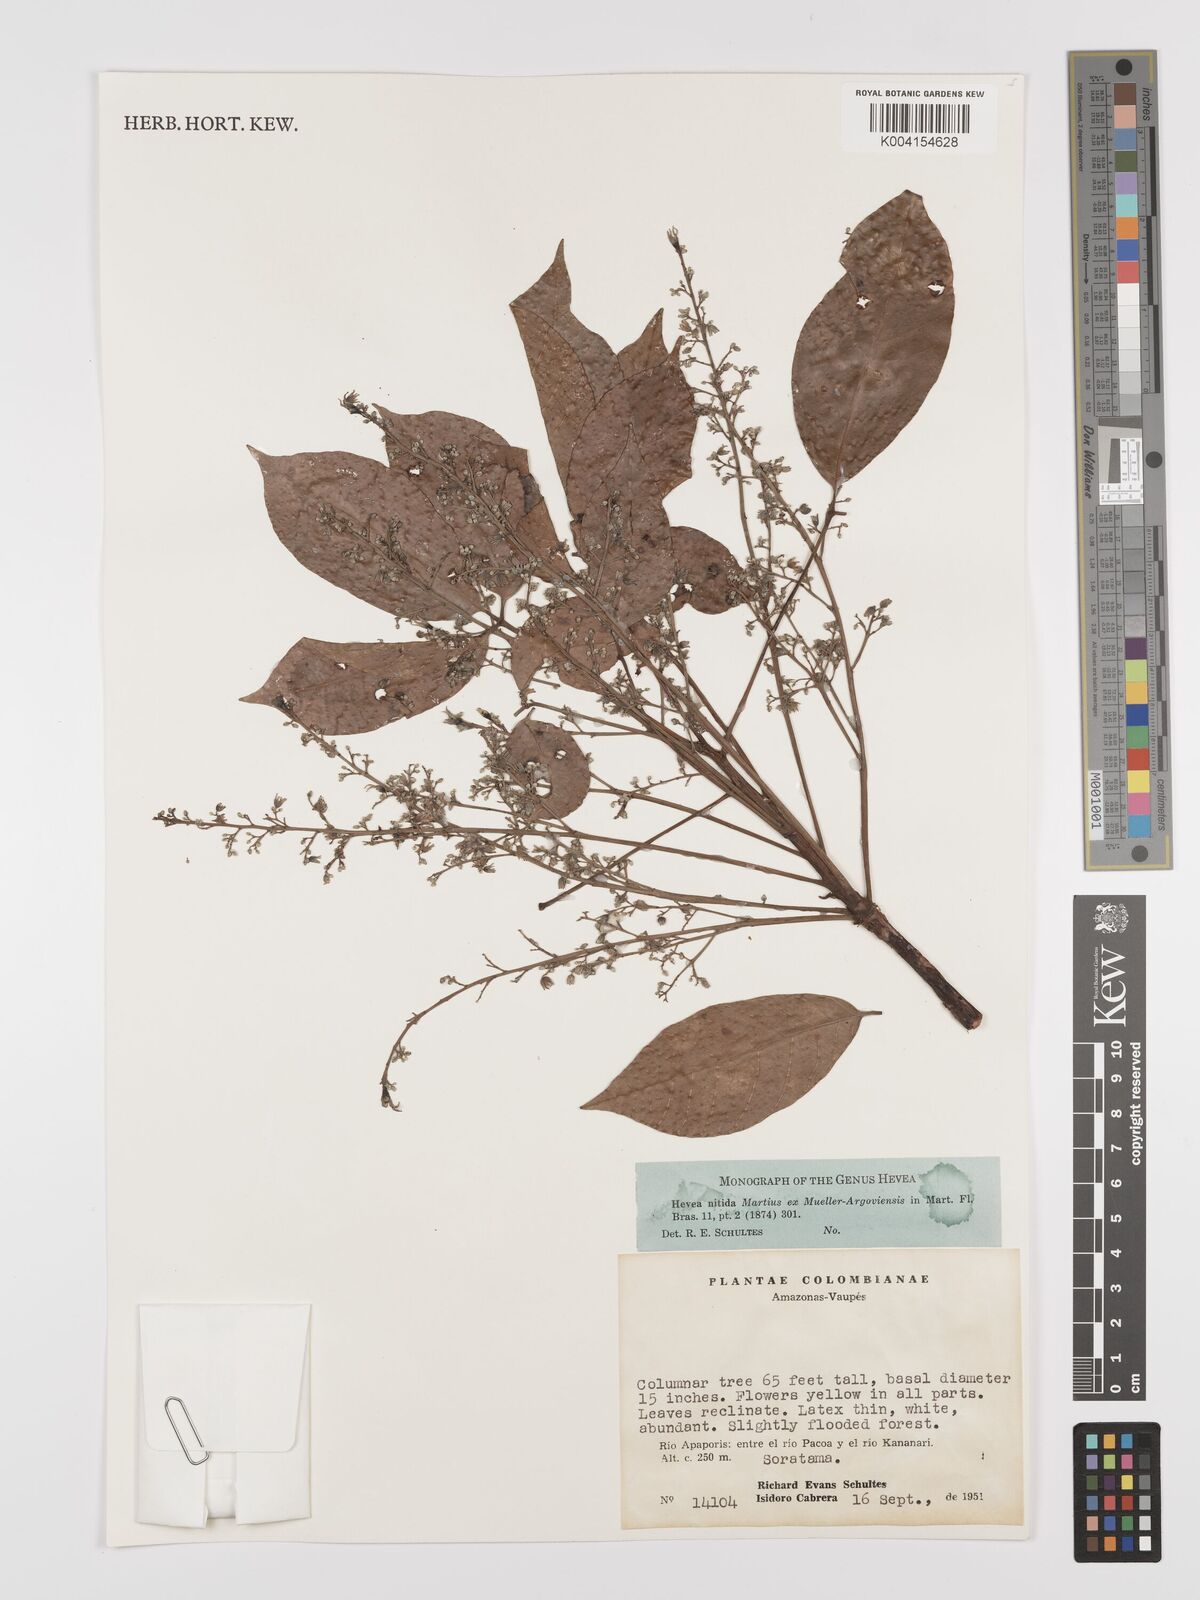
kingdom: Plantae
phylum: Tracheophyta
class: Magnoliopsida
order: Malpighiales
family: Euphorbiaceae
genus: Hevea
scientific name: Hevea nitida
